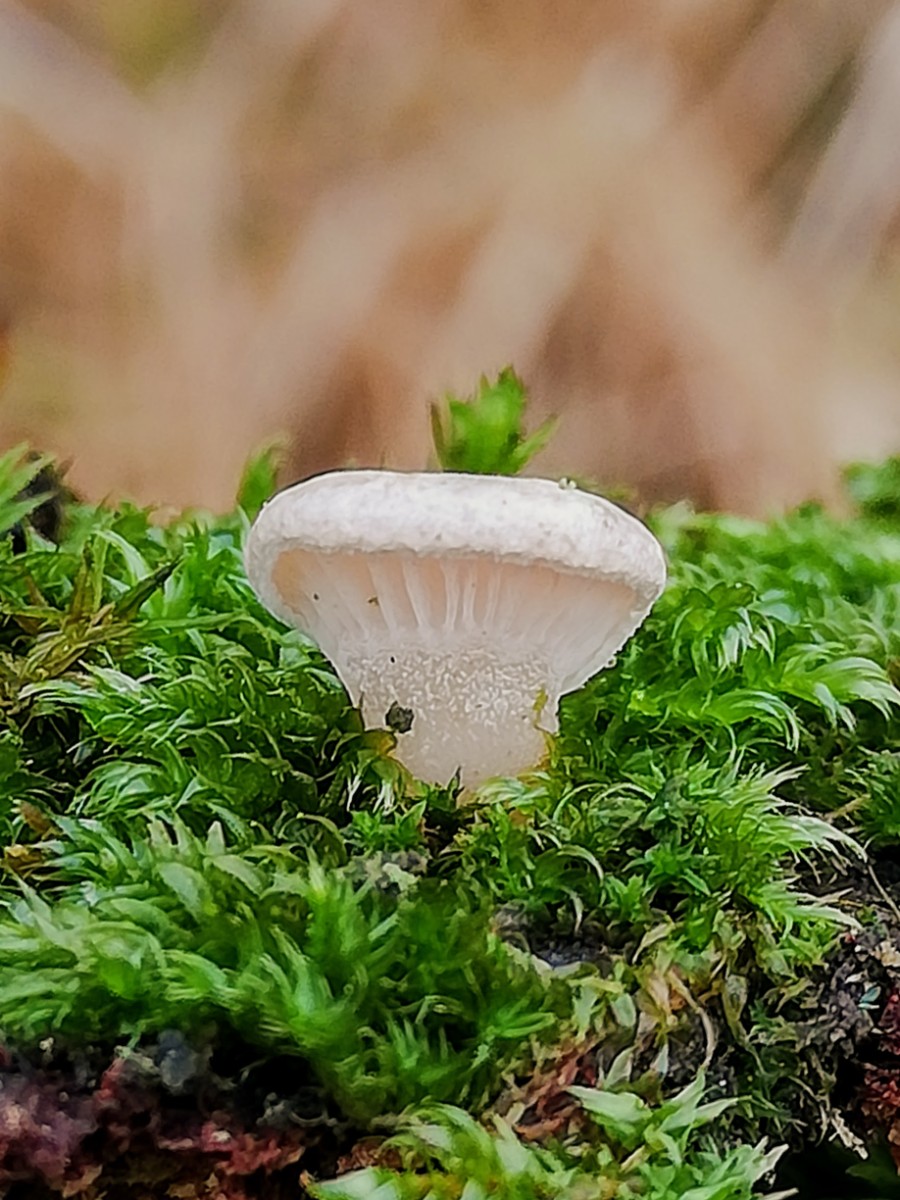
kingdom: Fungi
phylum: Basidiomycota
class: Agaricomycetes
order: Agaricales
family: Mycenaceae
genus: Panellus
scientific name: Panellus mitis
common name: mild epaulethat
